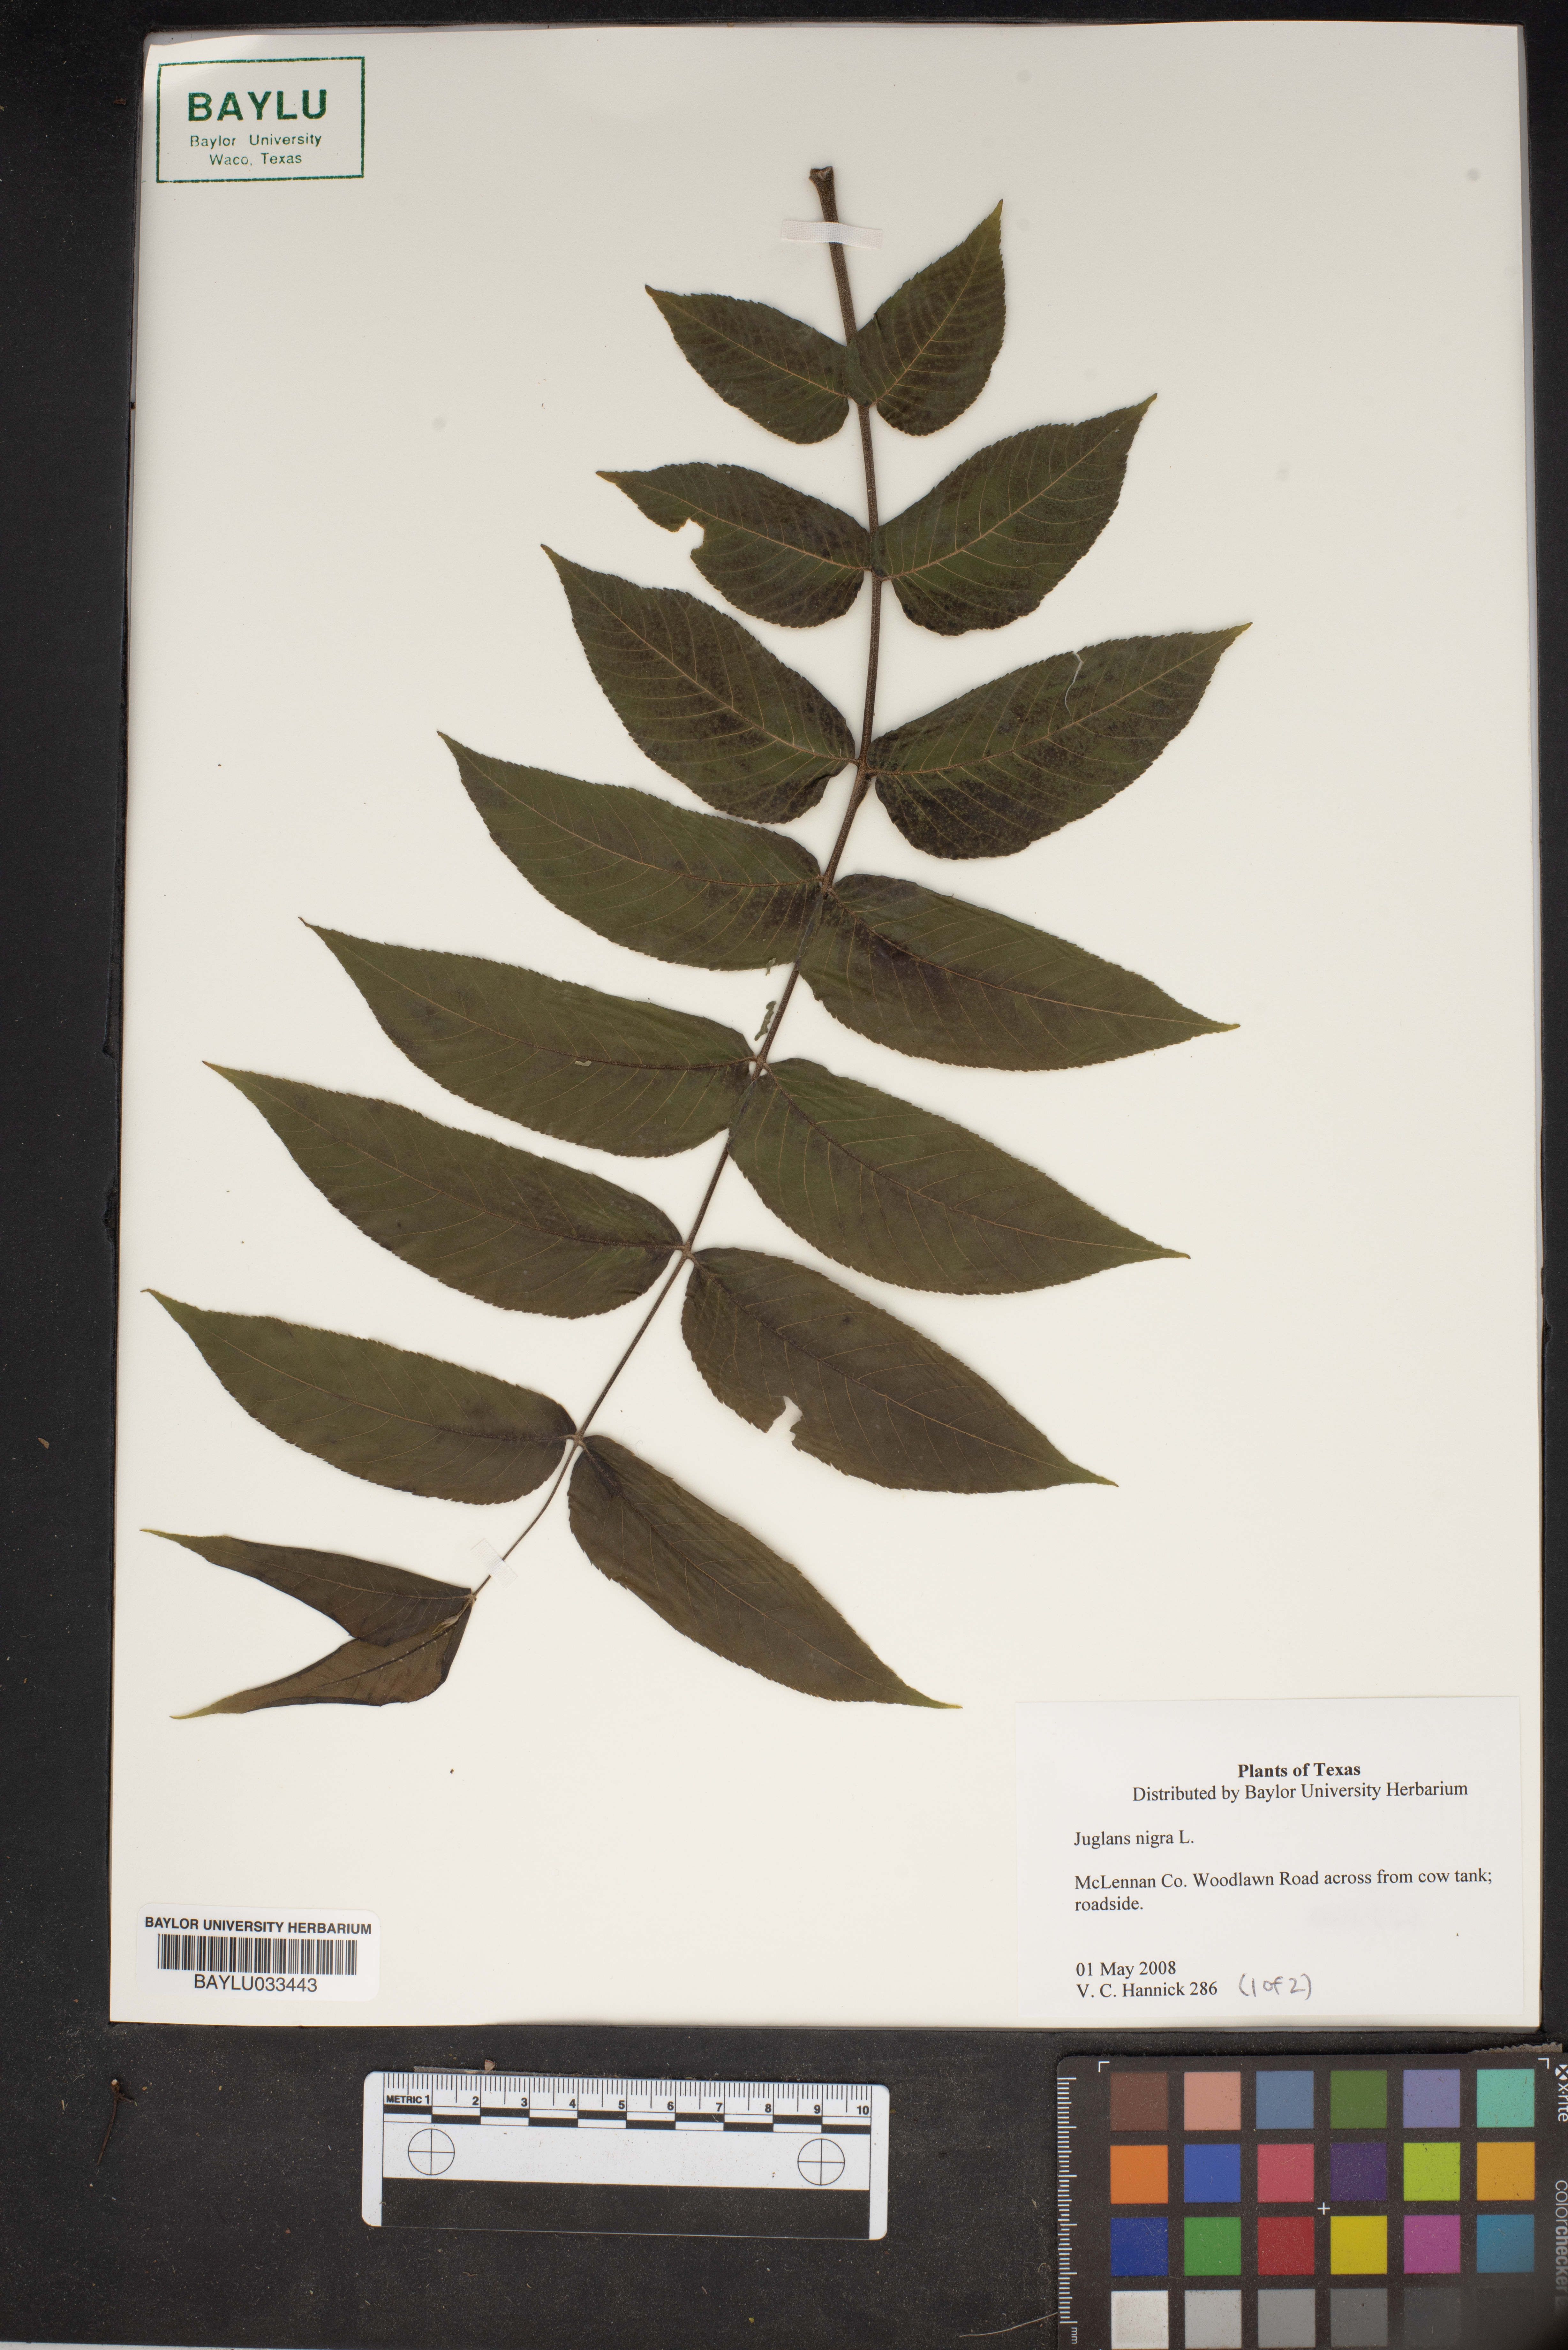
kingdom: Plantae
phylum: Tracheophyta
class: Magnoliopsida
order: Fagales
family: Juglandaceae
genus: Juglans
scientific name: Juglans nigra
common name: Black walnut
